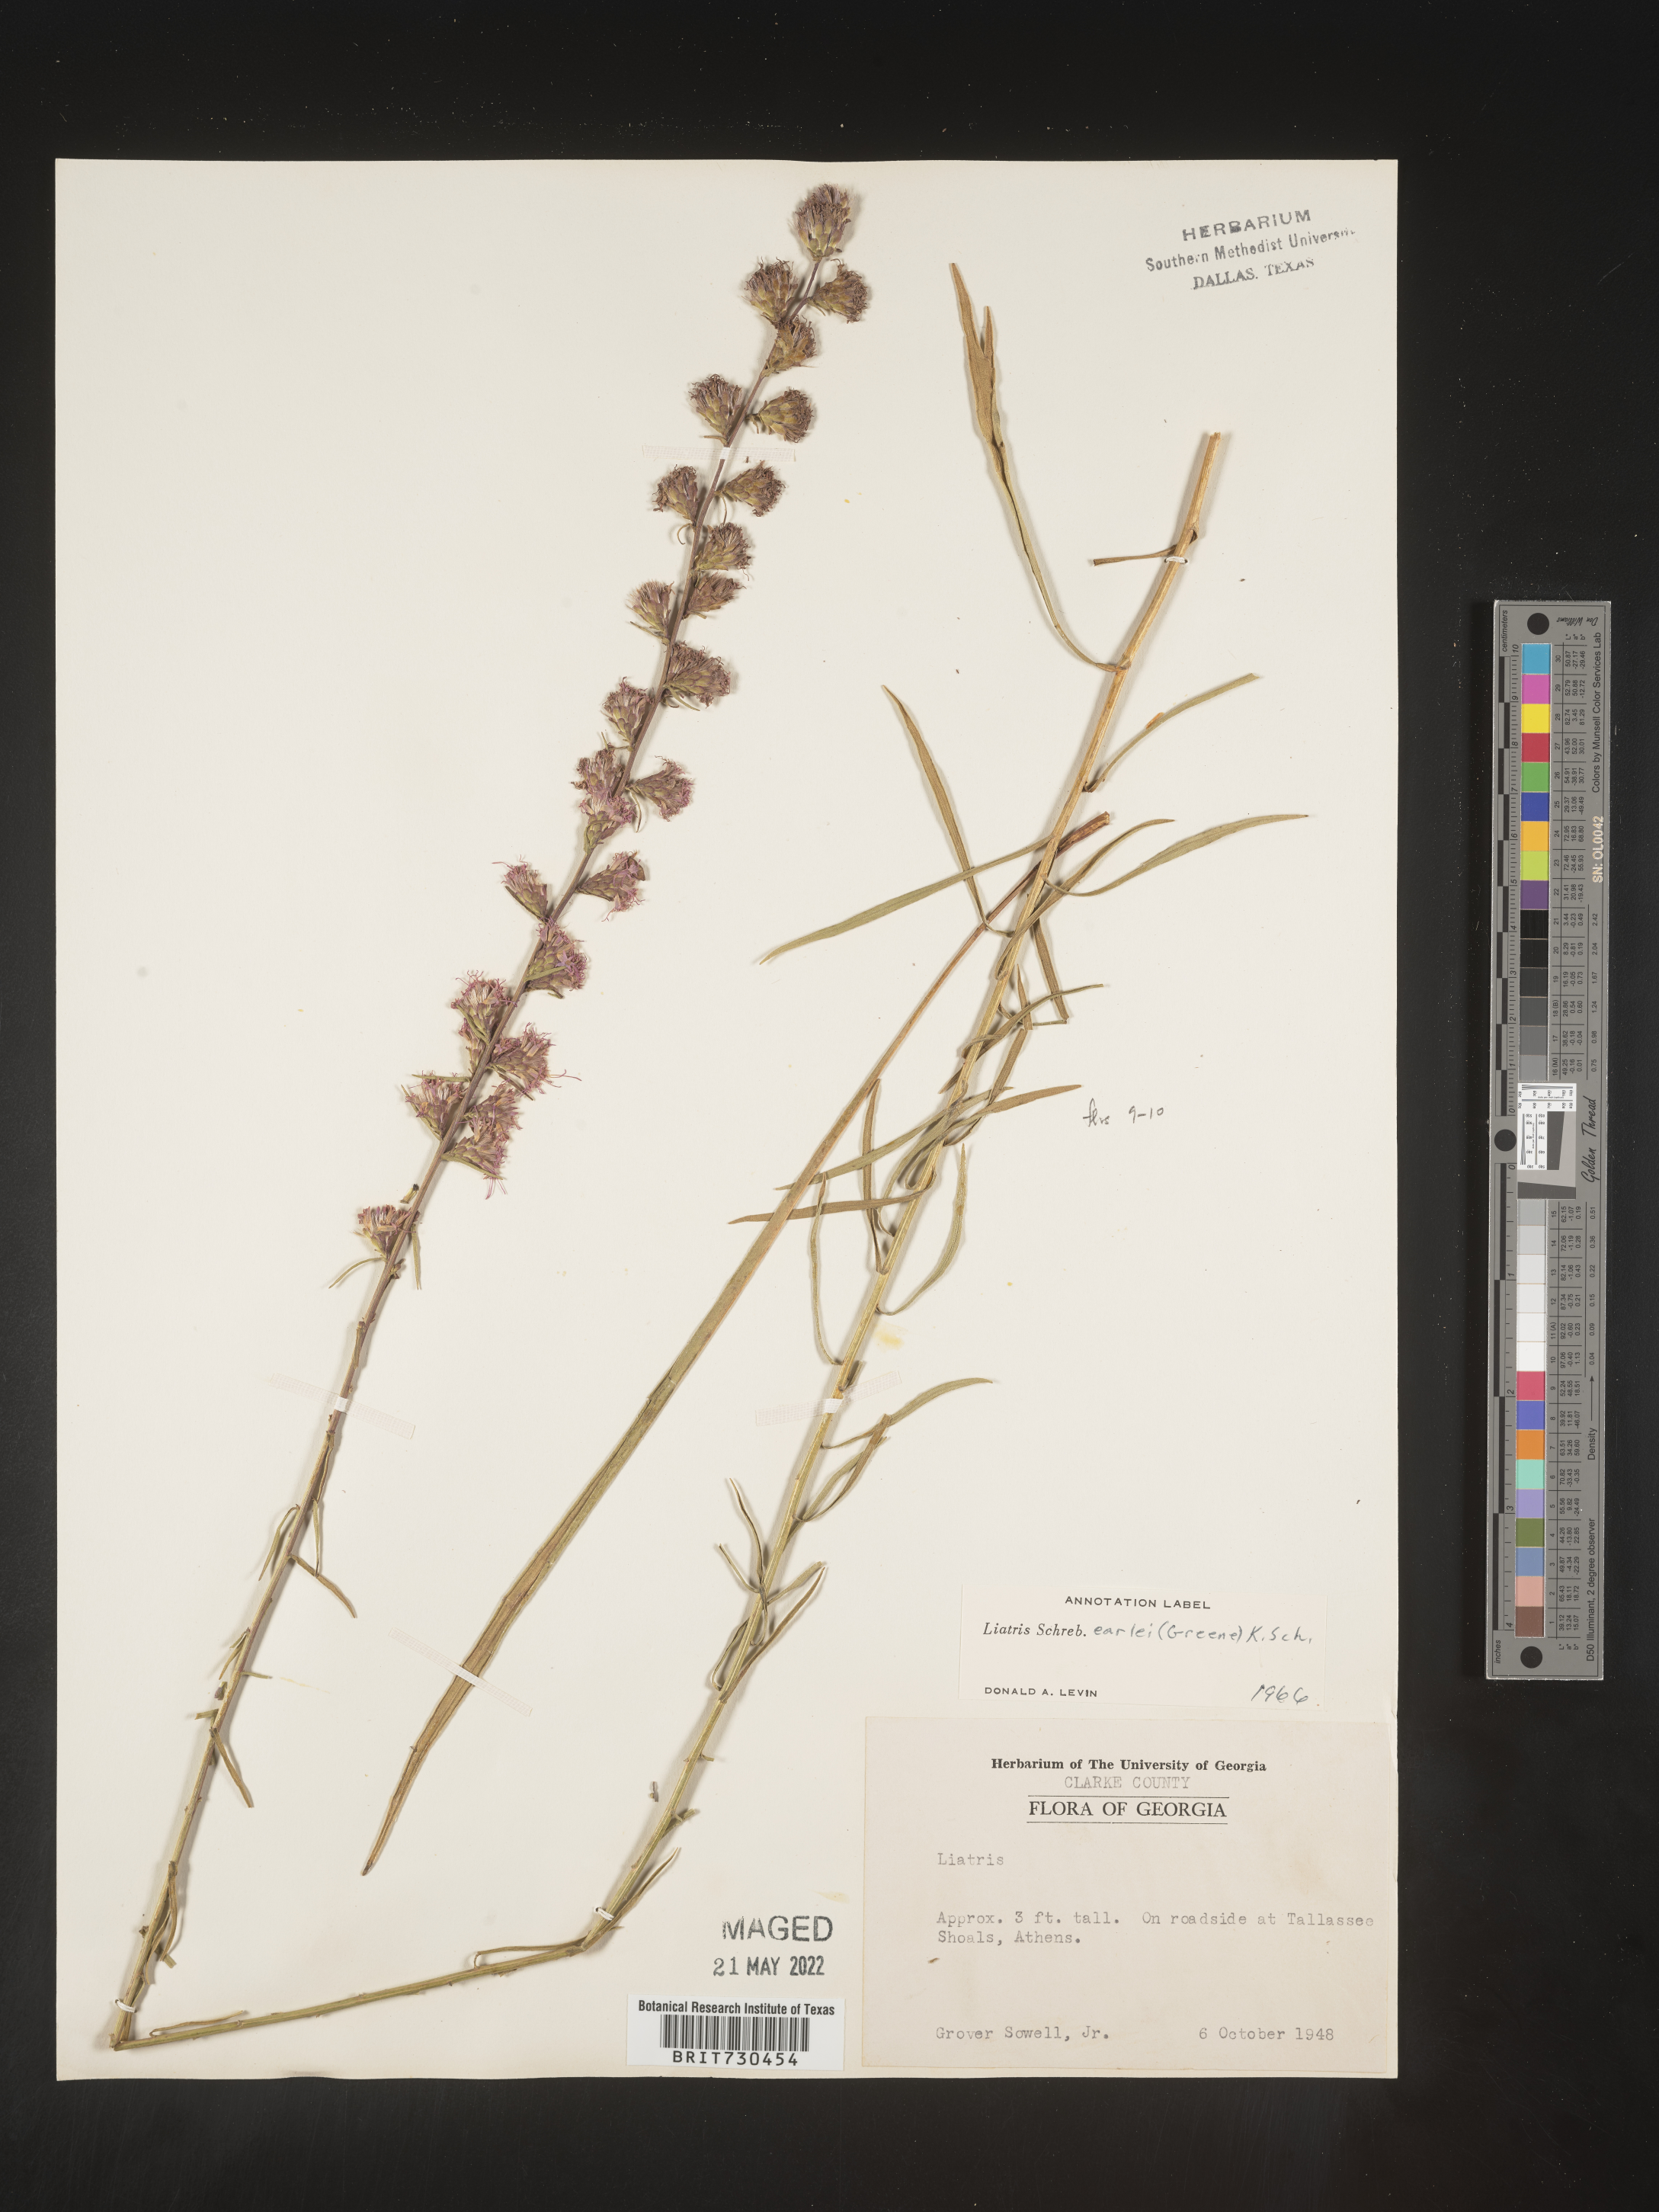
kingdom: Plantae
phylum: Tracheophyta
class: Magnoliopsida
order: Asterales
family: Asteraceae
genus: Liatris
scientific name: Liatris elegantula
